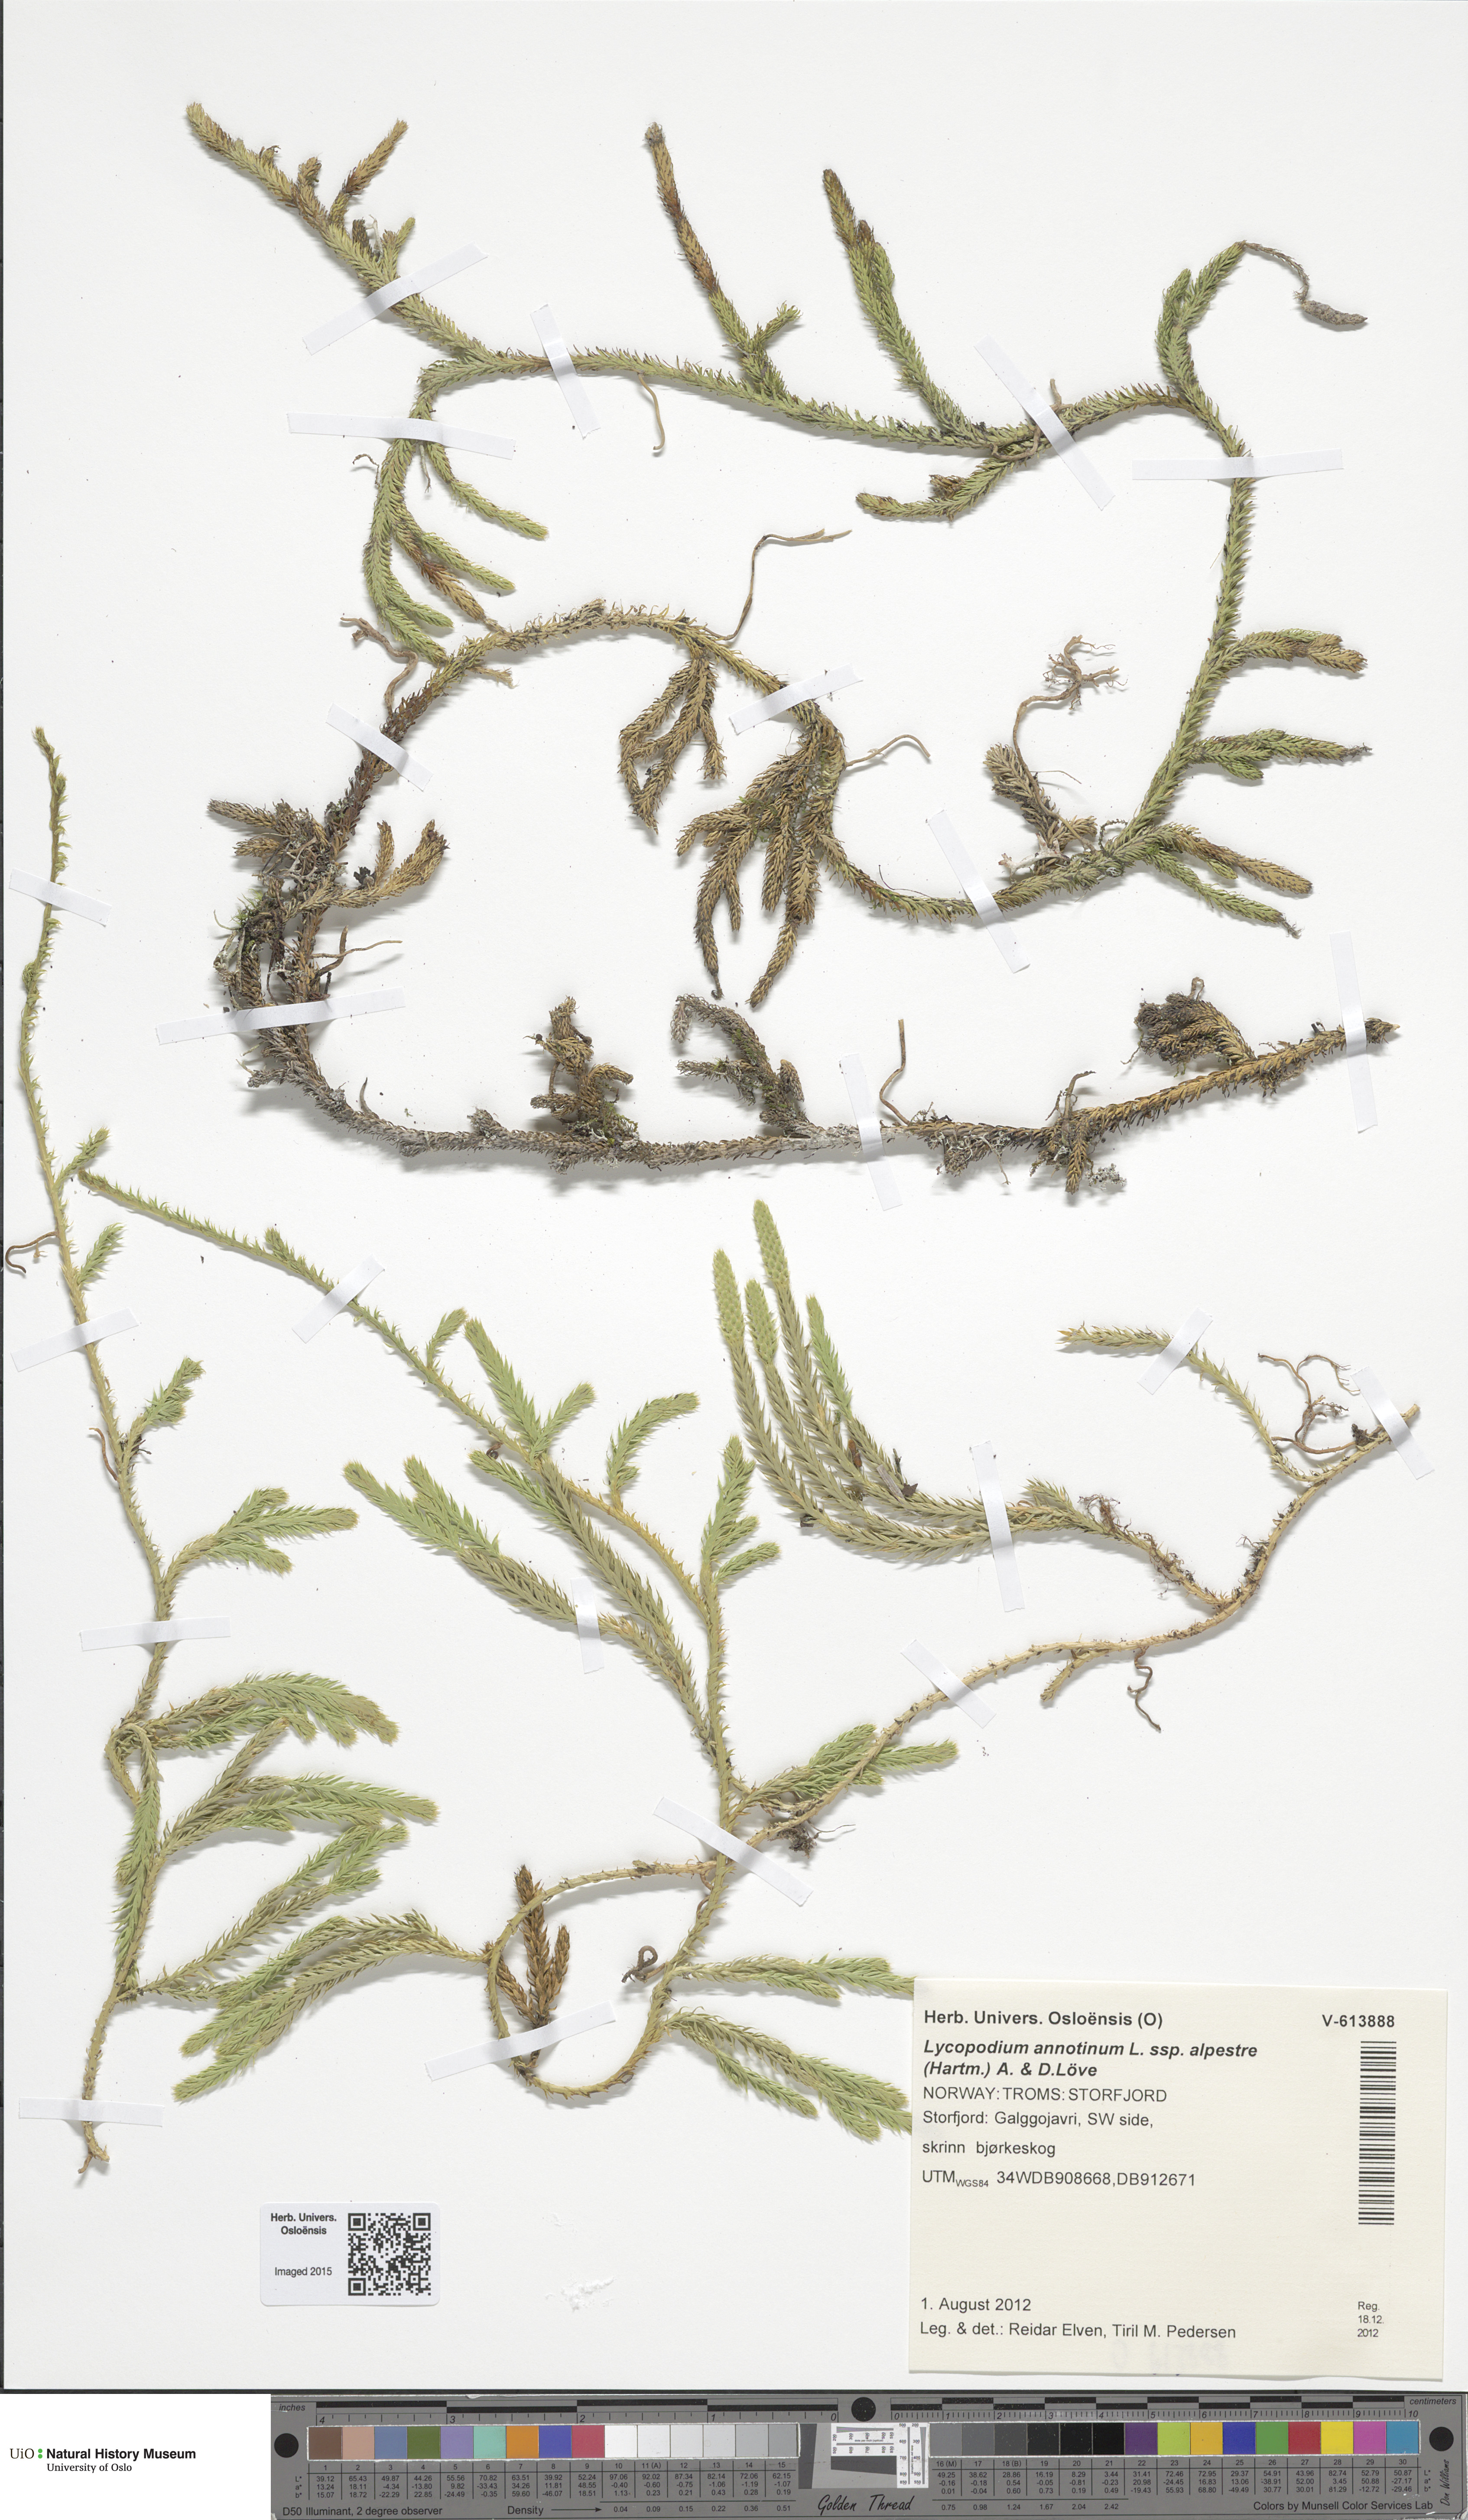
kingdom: Plantae
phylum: Tracheophyta
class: Lycopodiopsida
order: Lycopodiales
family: Lycopodiaceae
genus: Spinulum
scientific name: Spinulum annotinum
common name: Interrupted club-moss
